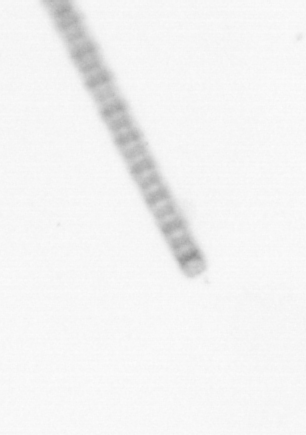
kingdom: Chromista
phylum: Ochrophyta
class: Bacillariophyceae
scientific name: Bacillariophyceae
